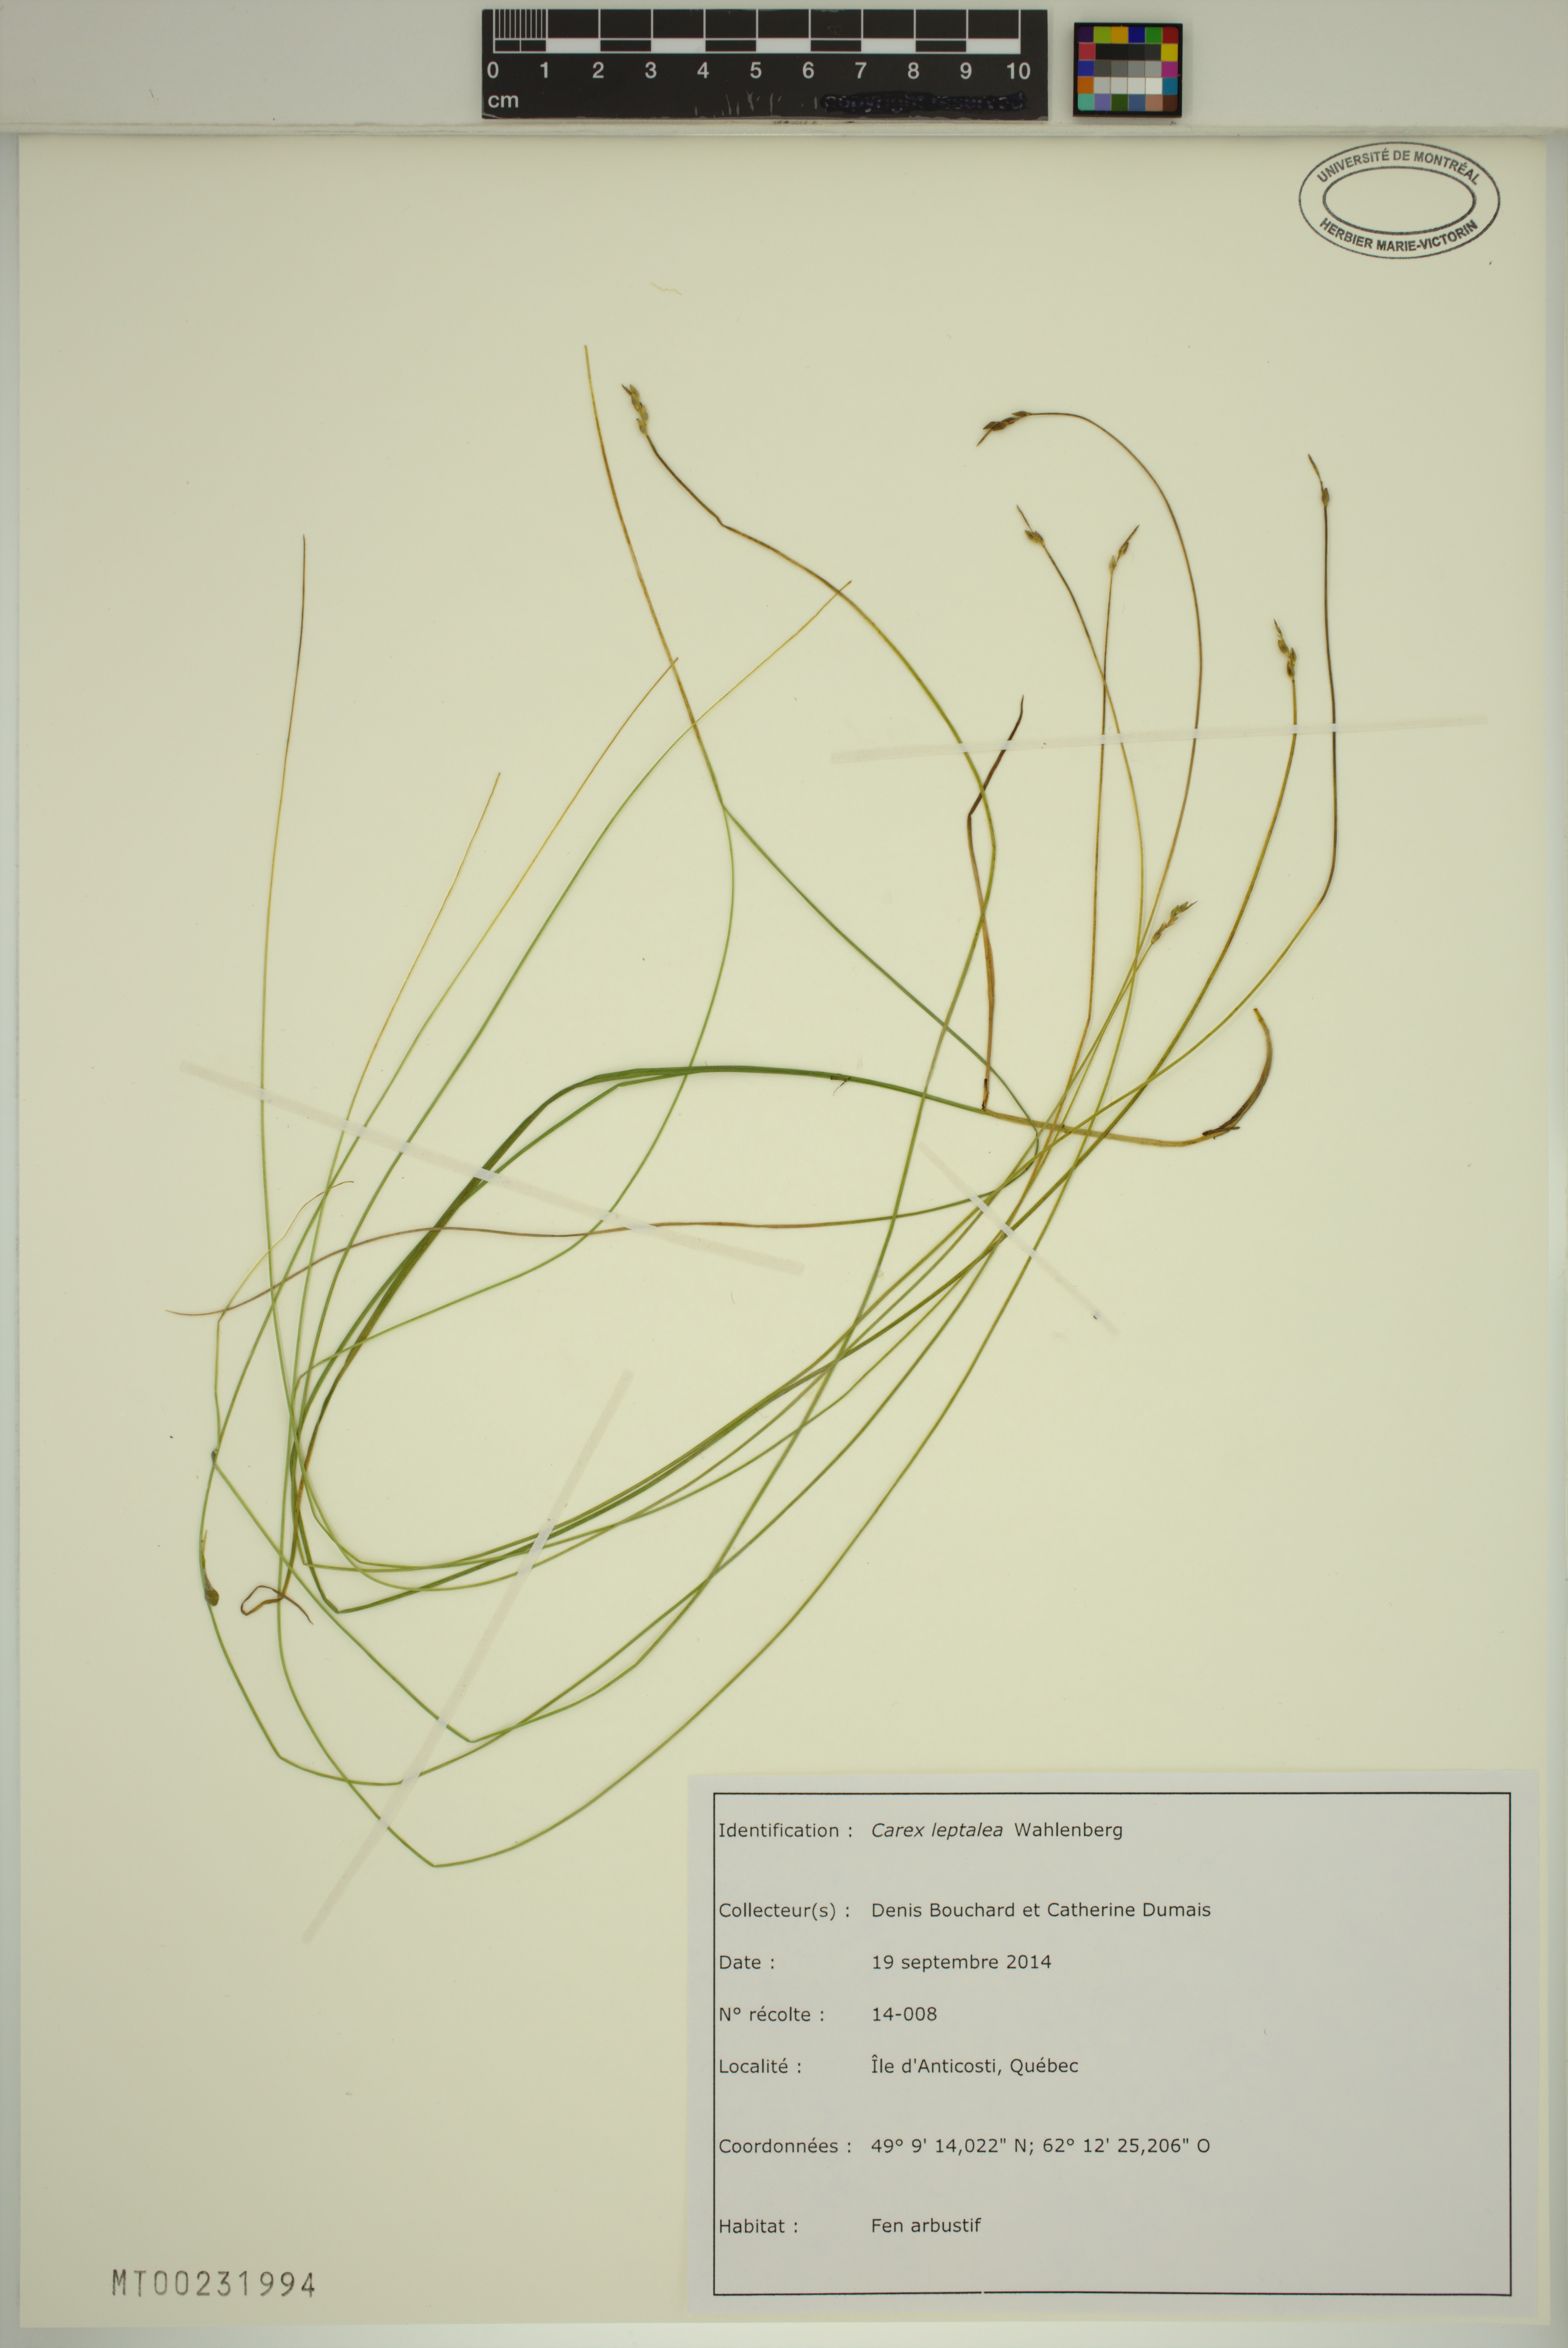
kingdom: Plantae
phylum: Tracheophyta
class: Liliopsida
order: Poales
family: Cyperaceae
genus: Carex
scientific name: Carex leptalea
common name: Bristly-stalked sedge
